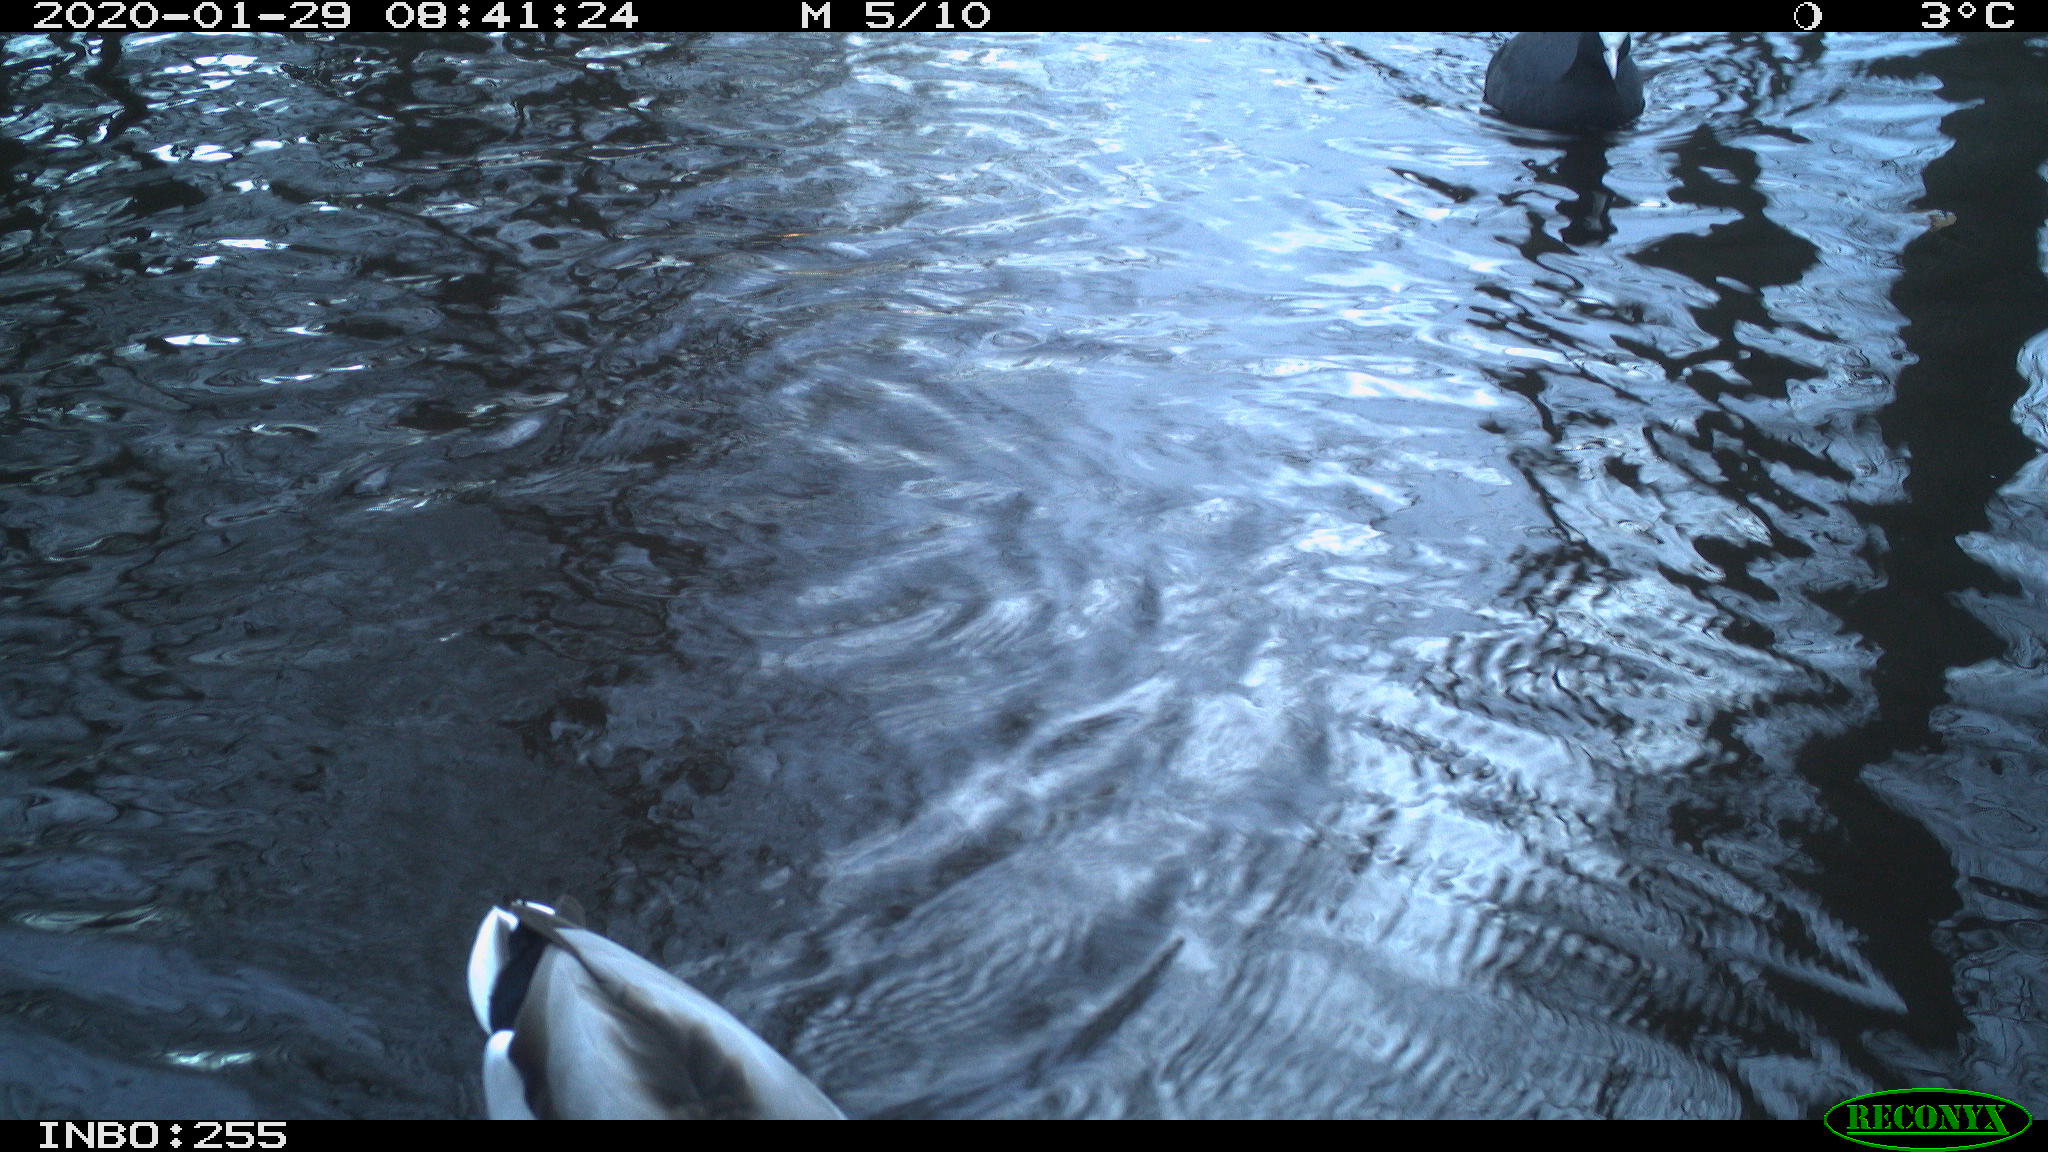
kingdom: Animalia
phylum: Chordata
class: Aves
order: Gruiformes
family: Rallidae
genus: Fulica
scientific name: Fulica atra
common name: Eurasian coot
